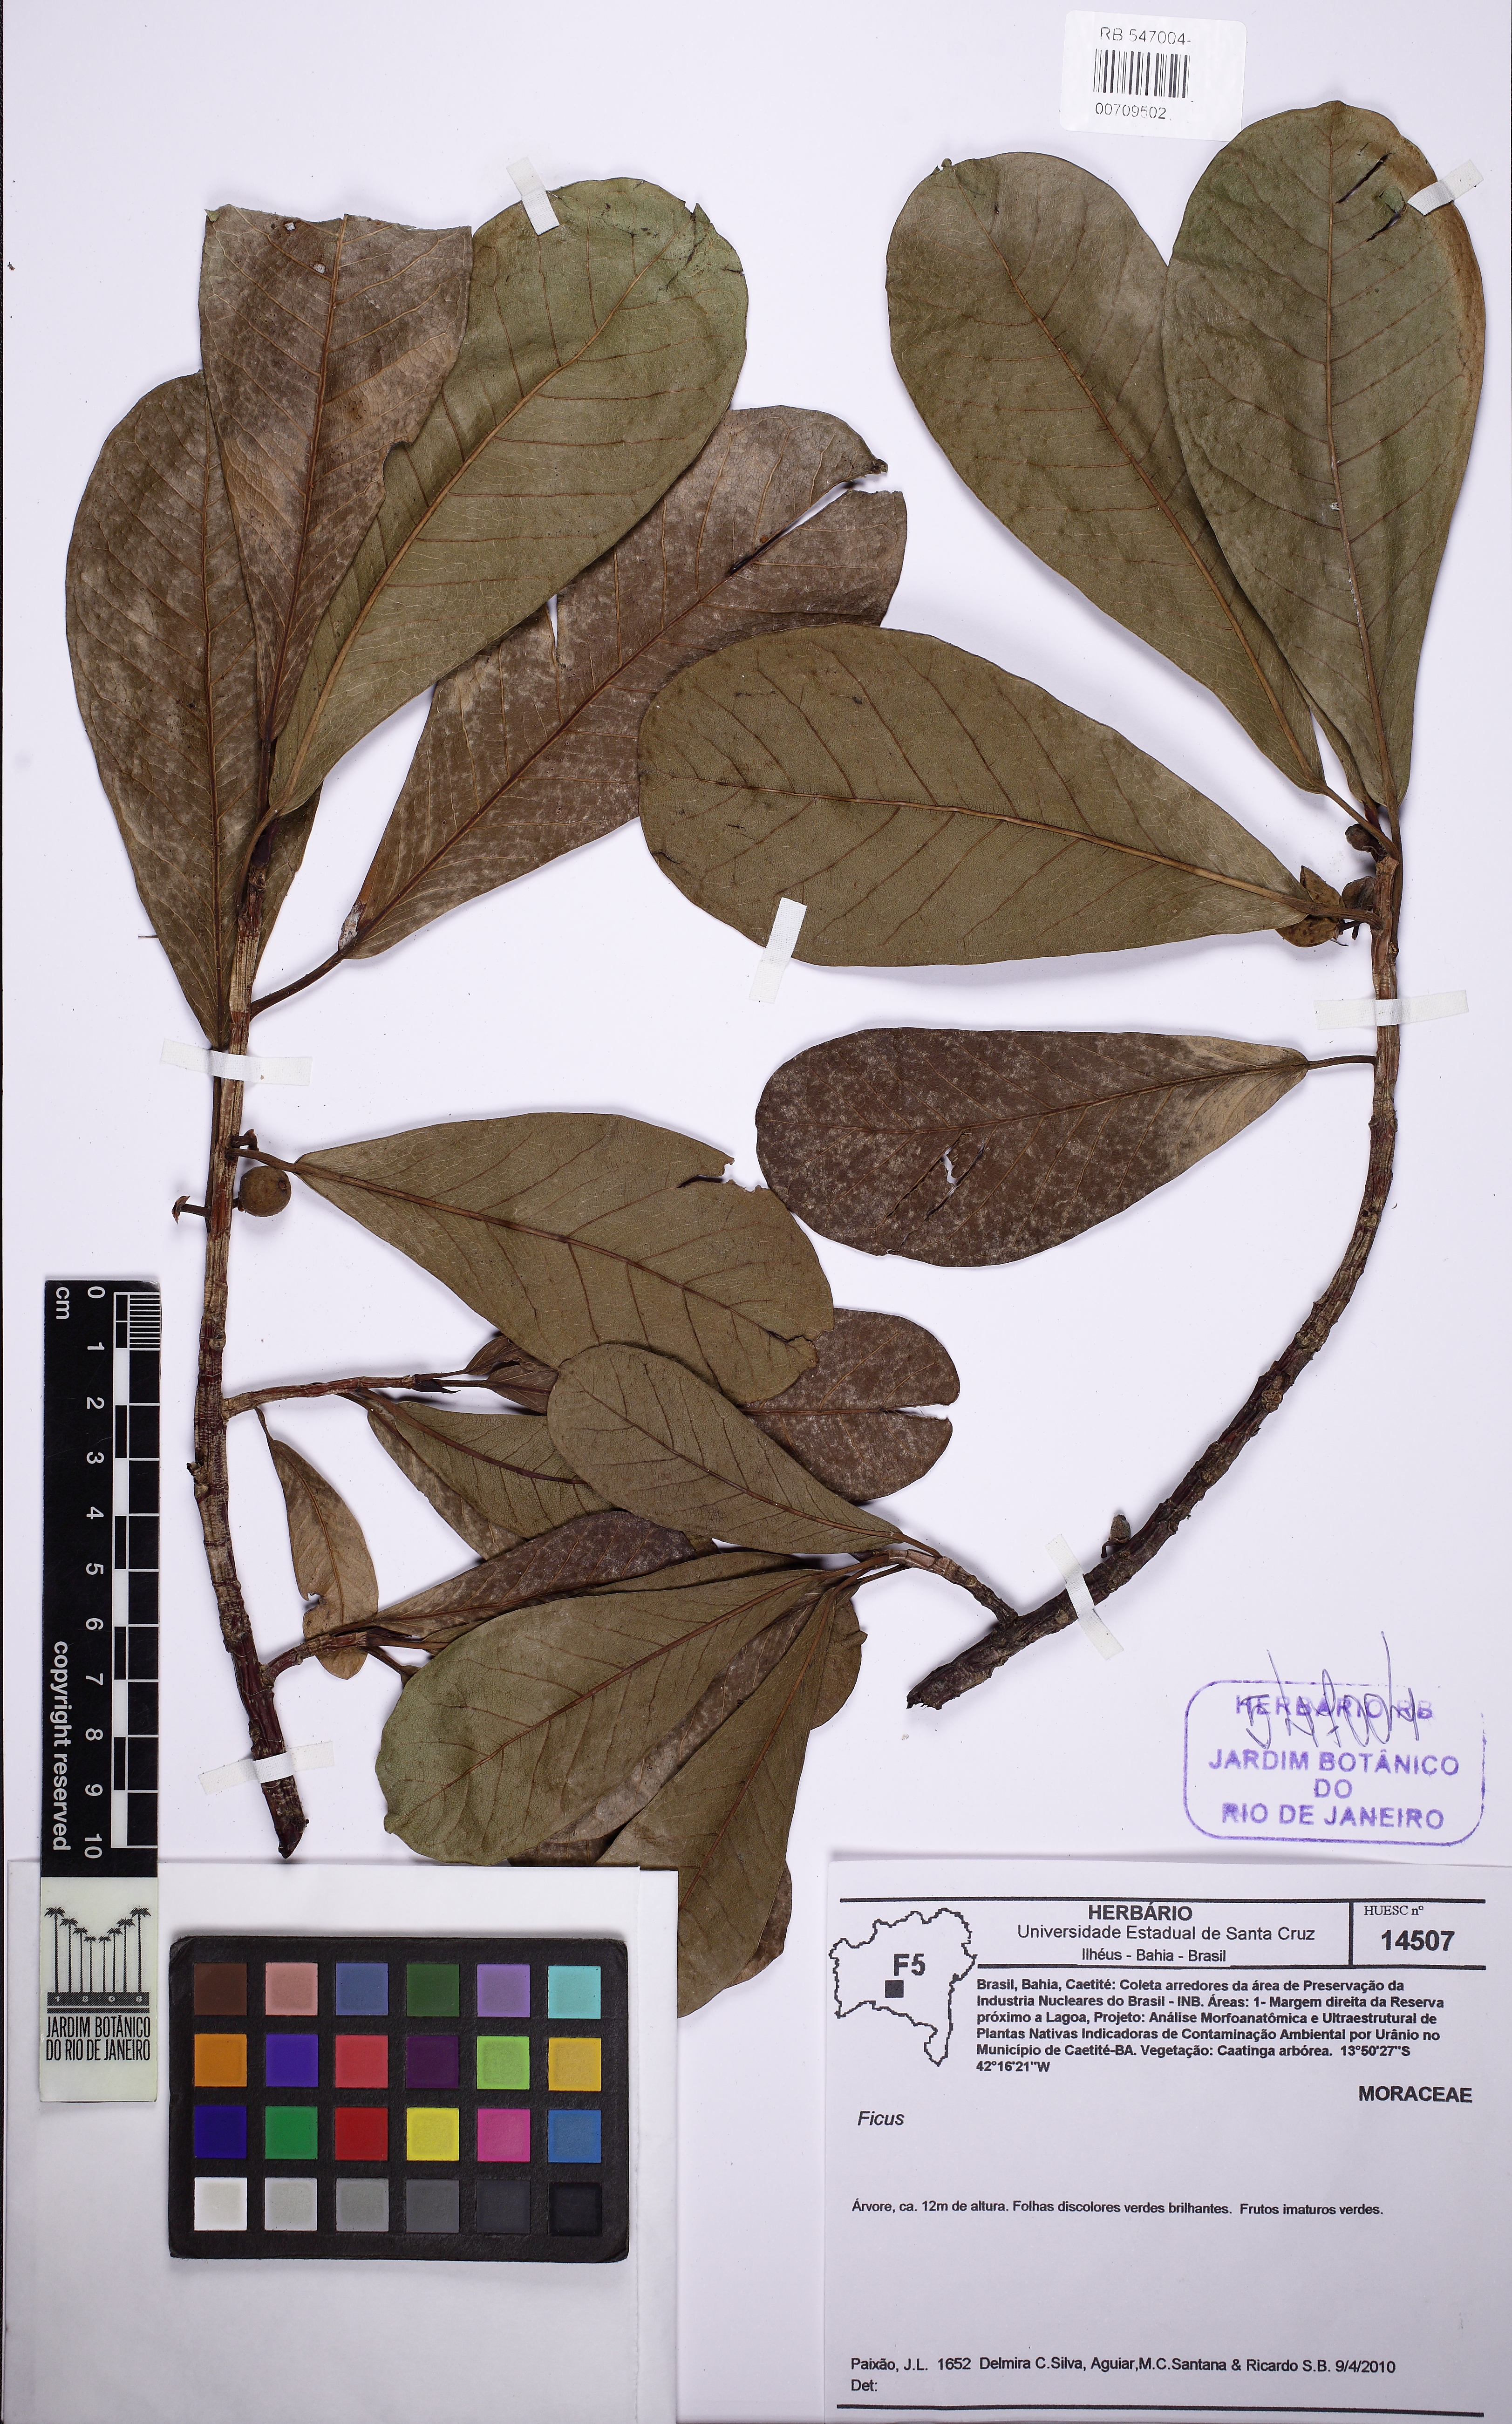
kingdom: Plantae
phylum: Tracheophyta
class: Magnoliopsida
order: Rosales
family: Moraceae
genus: Ficus
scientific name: Ficus enormis
